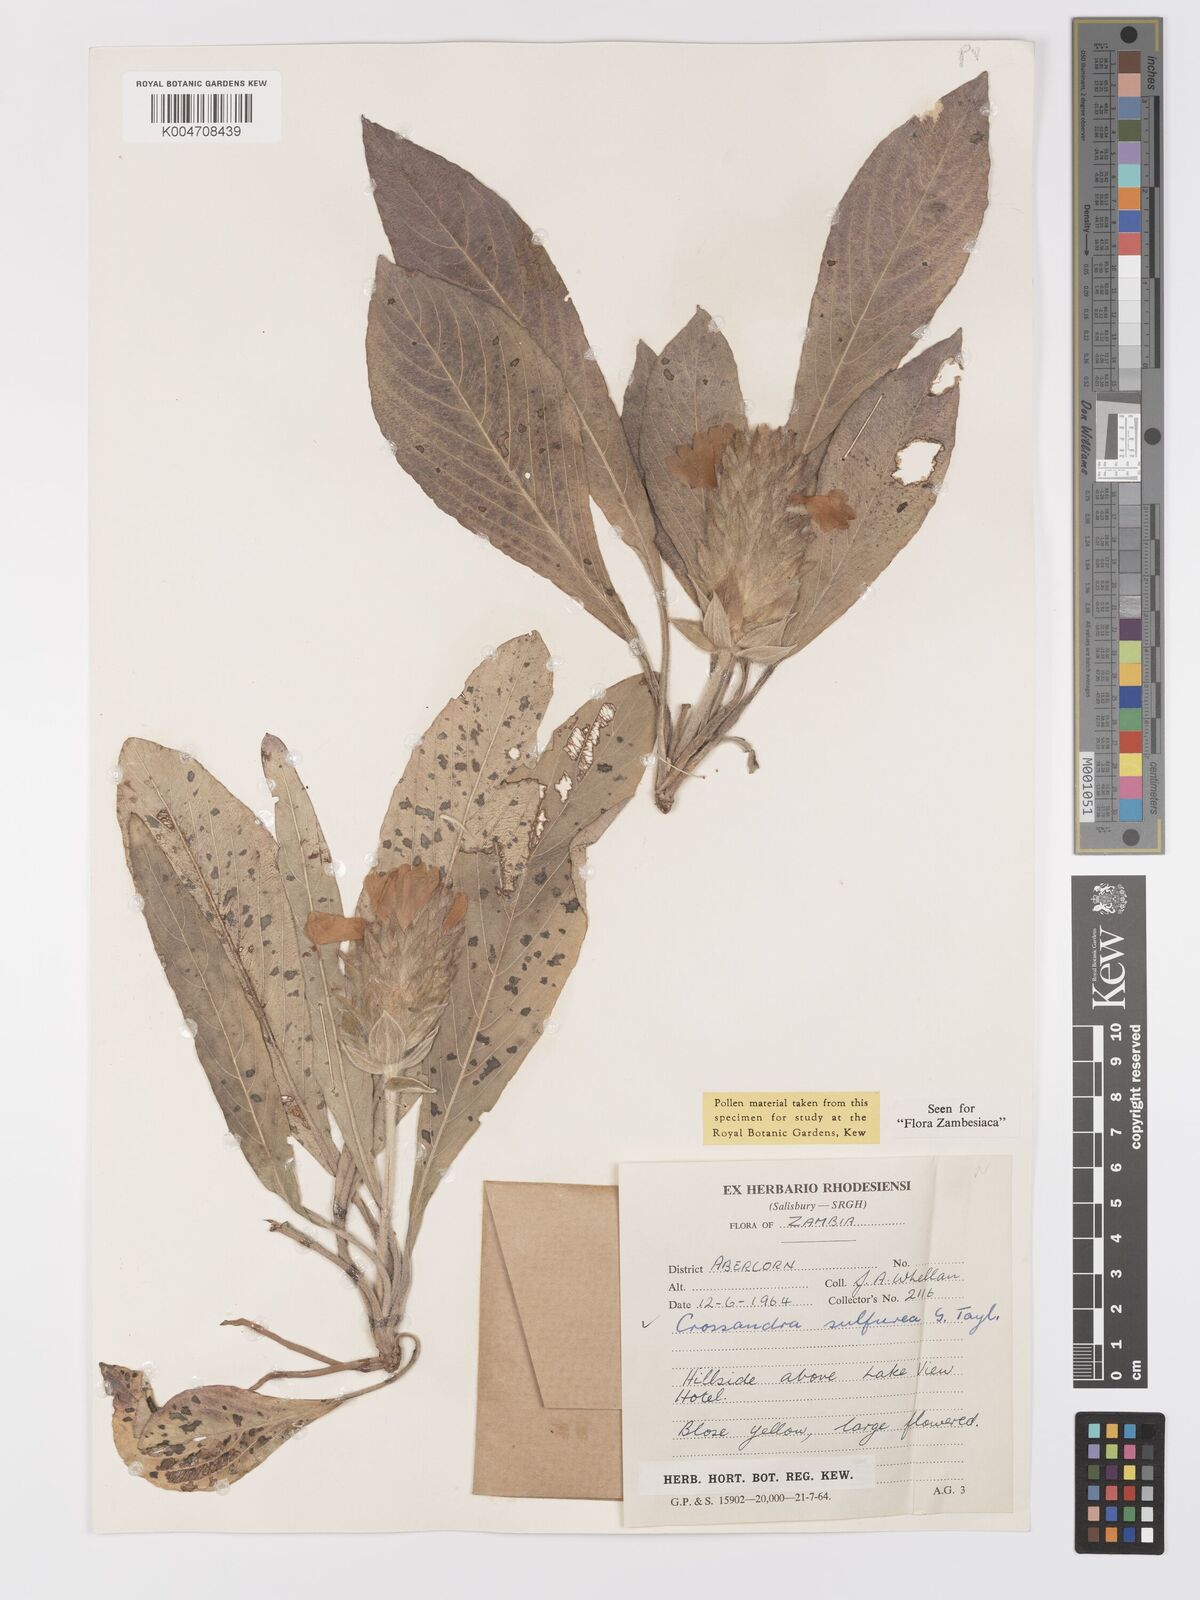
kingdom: Plantae
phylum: Tracheophyta
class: Magnoliopsida
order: Lamiales
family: Acanthaceae
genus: Crossandra
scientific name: Crossandra sulphurea
